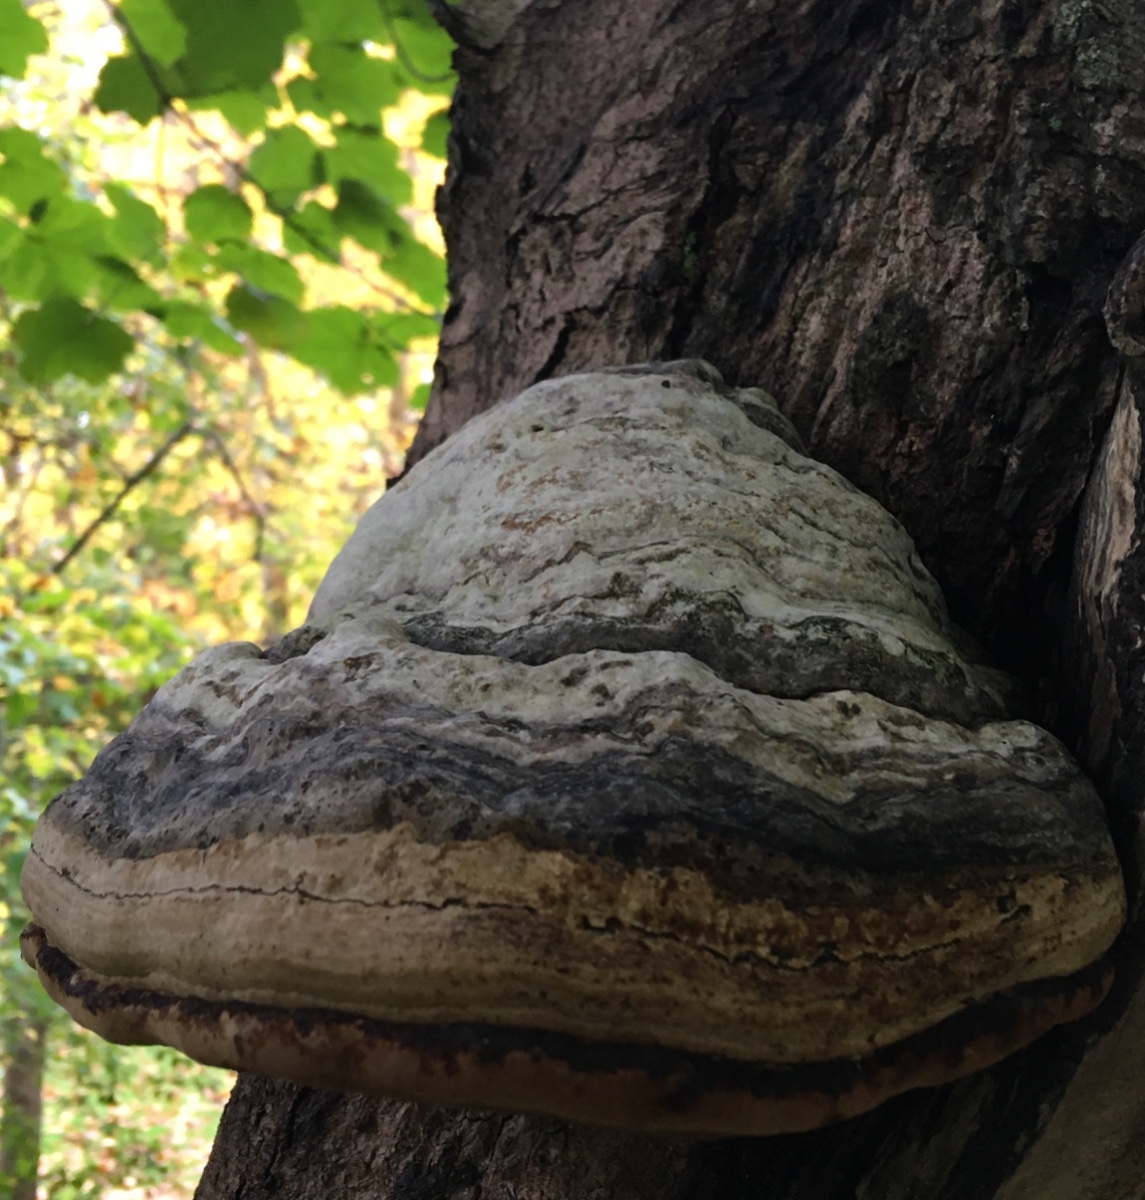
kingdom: Fungi
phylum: Basidiomycota
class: Agaricomycetes
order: Polyporales
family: Polyporaceae
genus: Fomes
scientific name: Fomes fomentarius
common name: tøndersvamp
